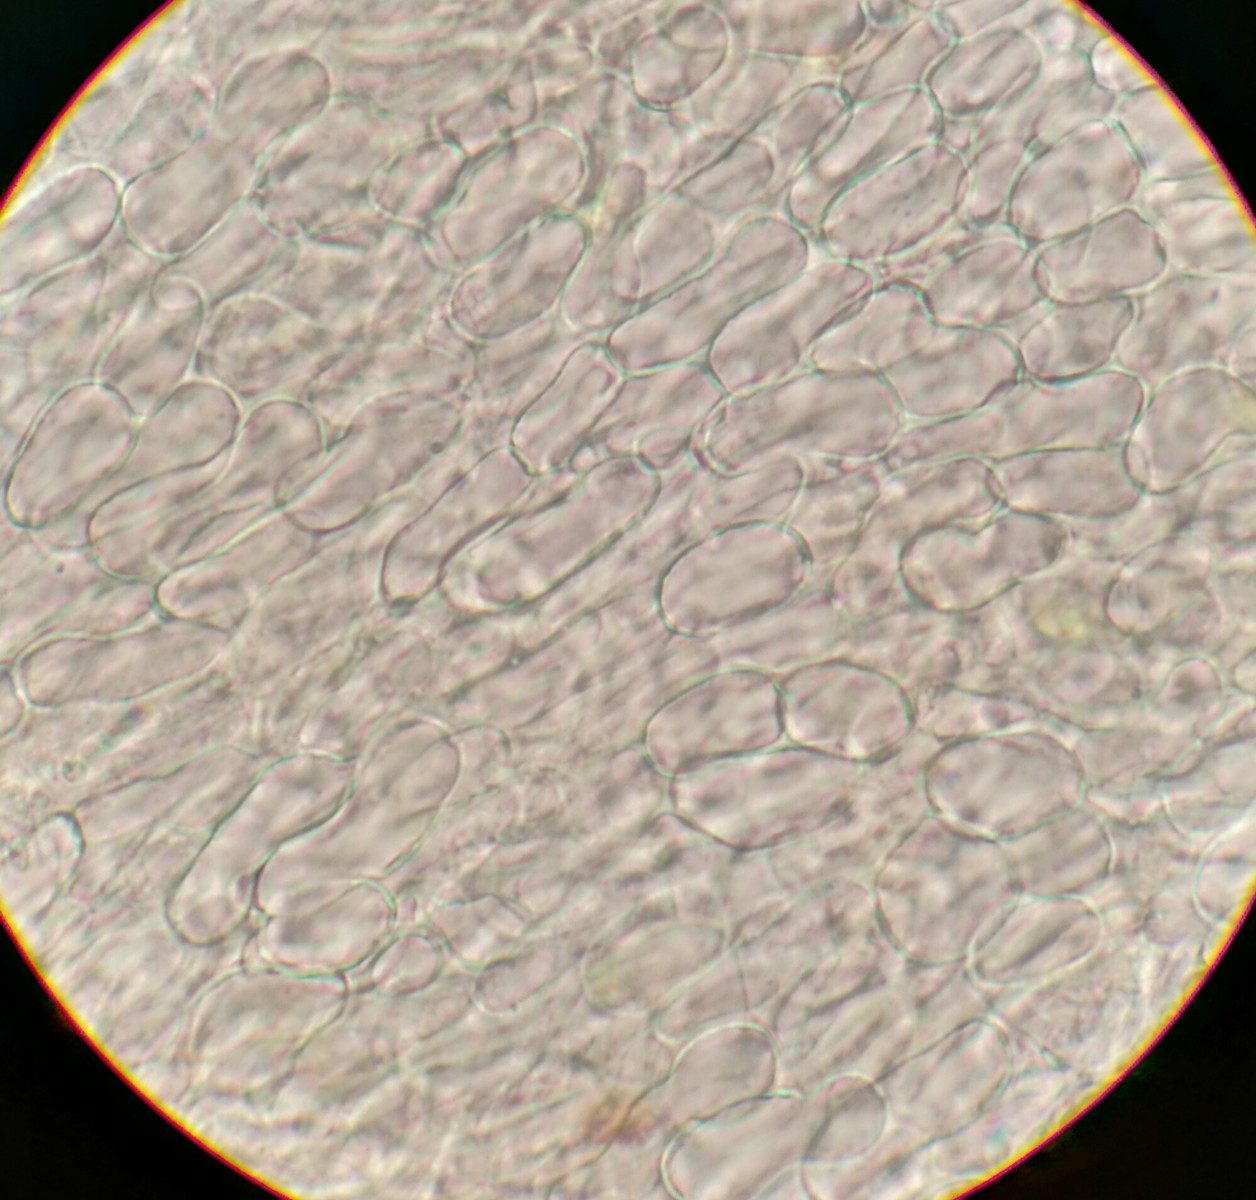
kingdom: Fungi
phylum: Ascomycota
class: Leotiomycetes
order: Helotiales
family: Pezizellaceae
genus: Calycina
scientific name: Calycina vulgaris
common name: pølsesporet gulskive
